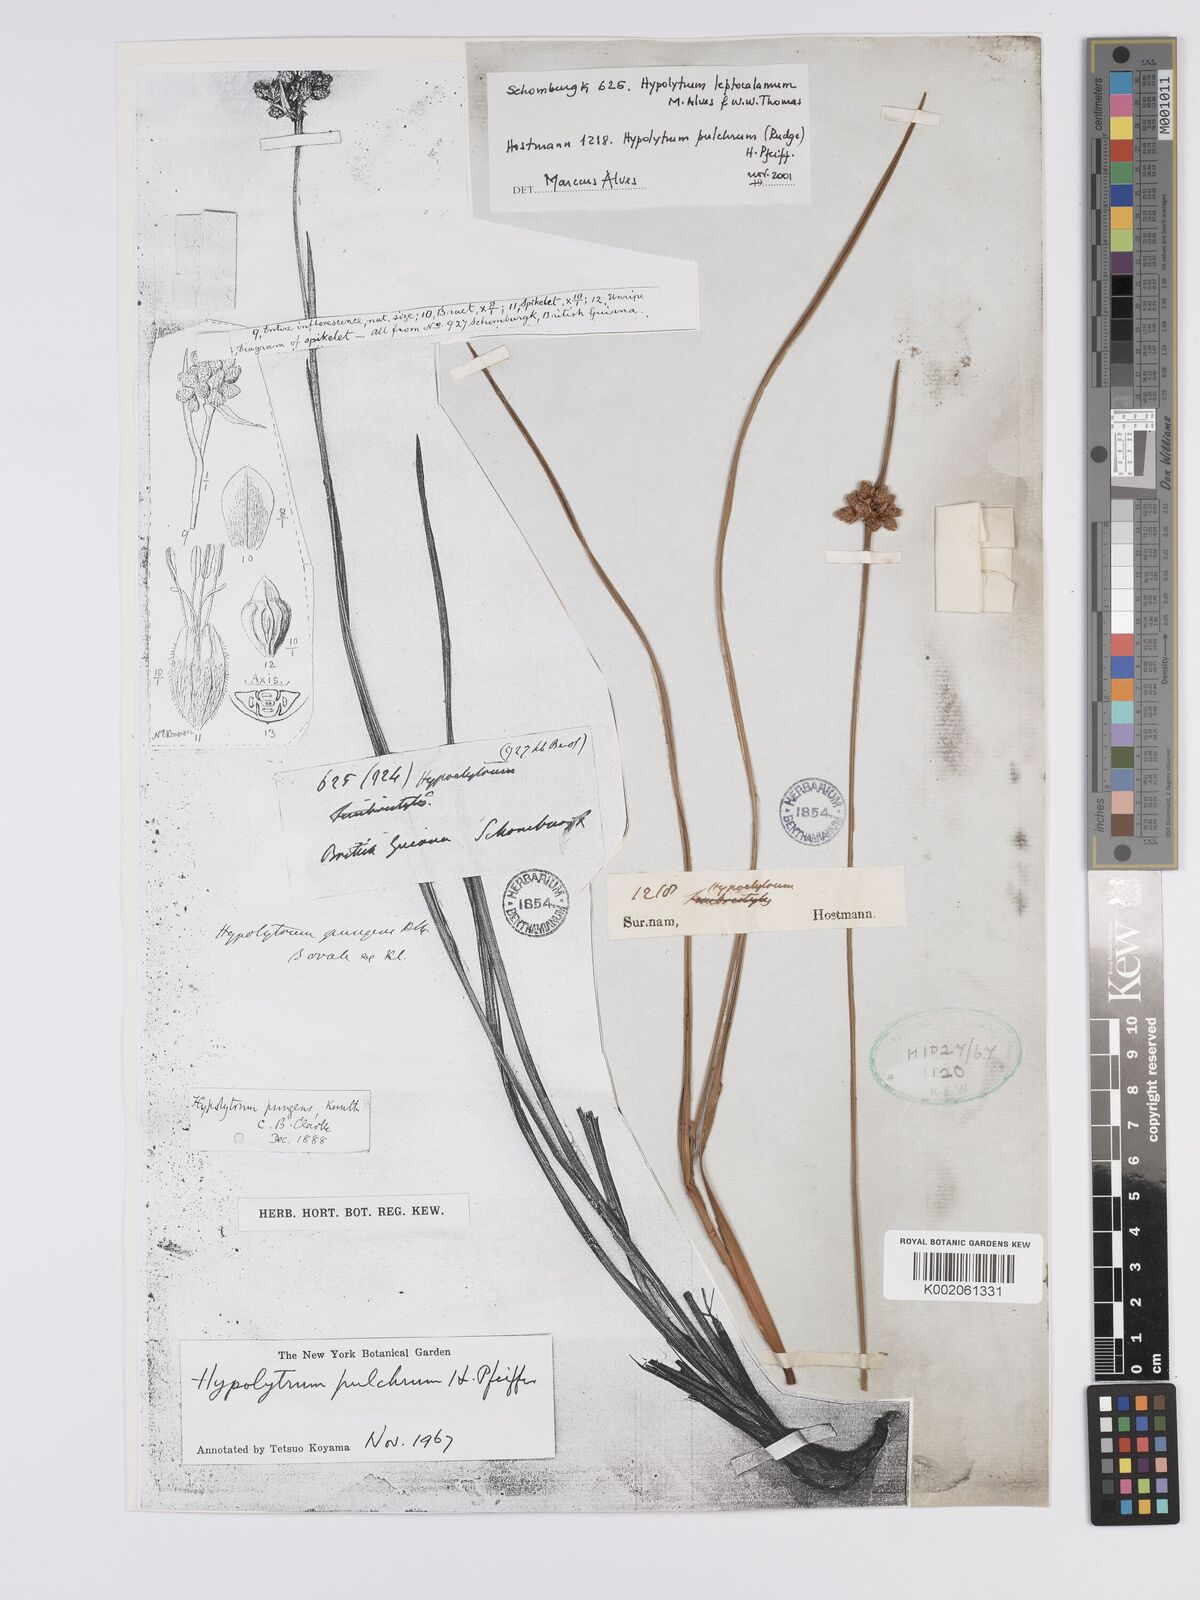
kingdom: Plantae
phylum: Tracheophyta
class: Liliopsida
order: Poales
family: Cyperaceae
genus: Hypolytrum
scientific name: Hypolytrum pulchrum
